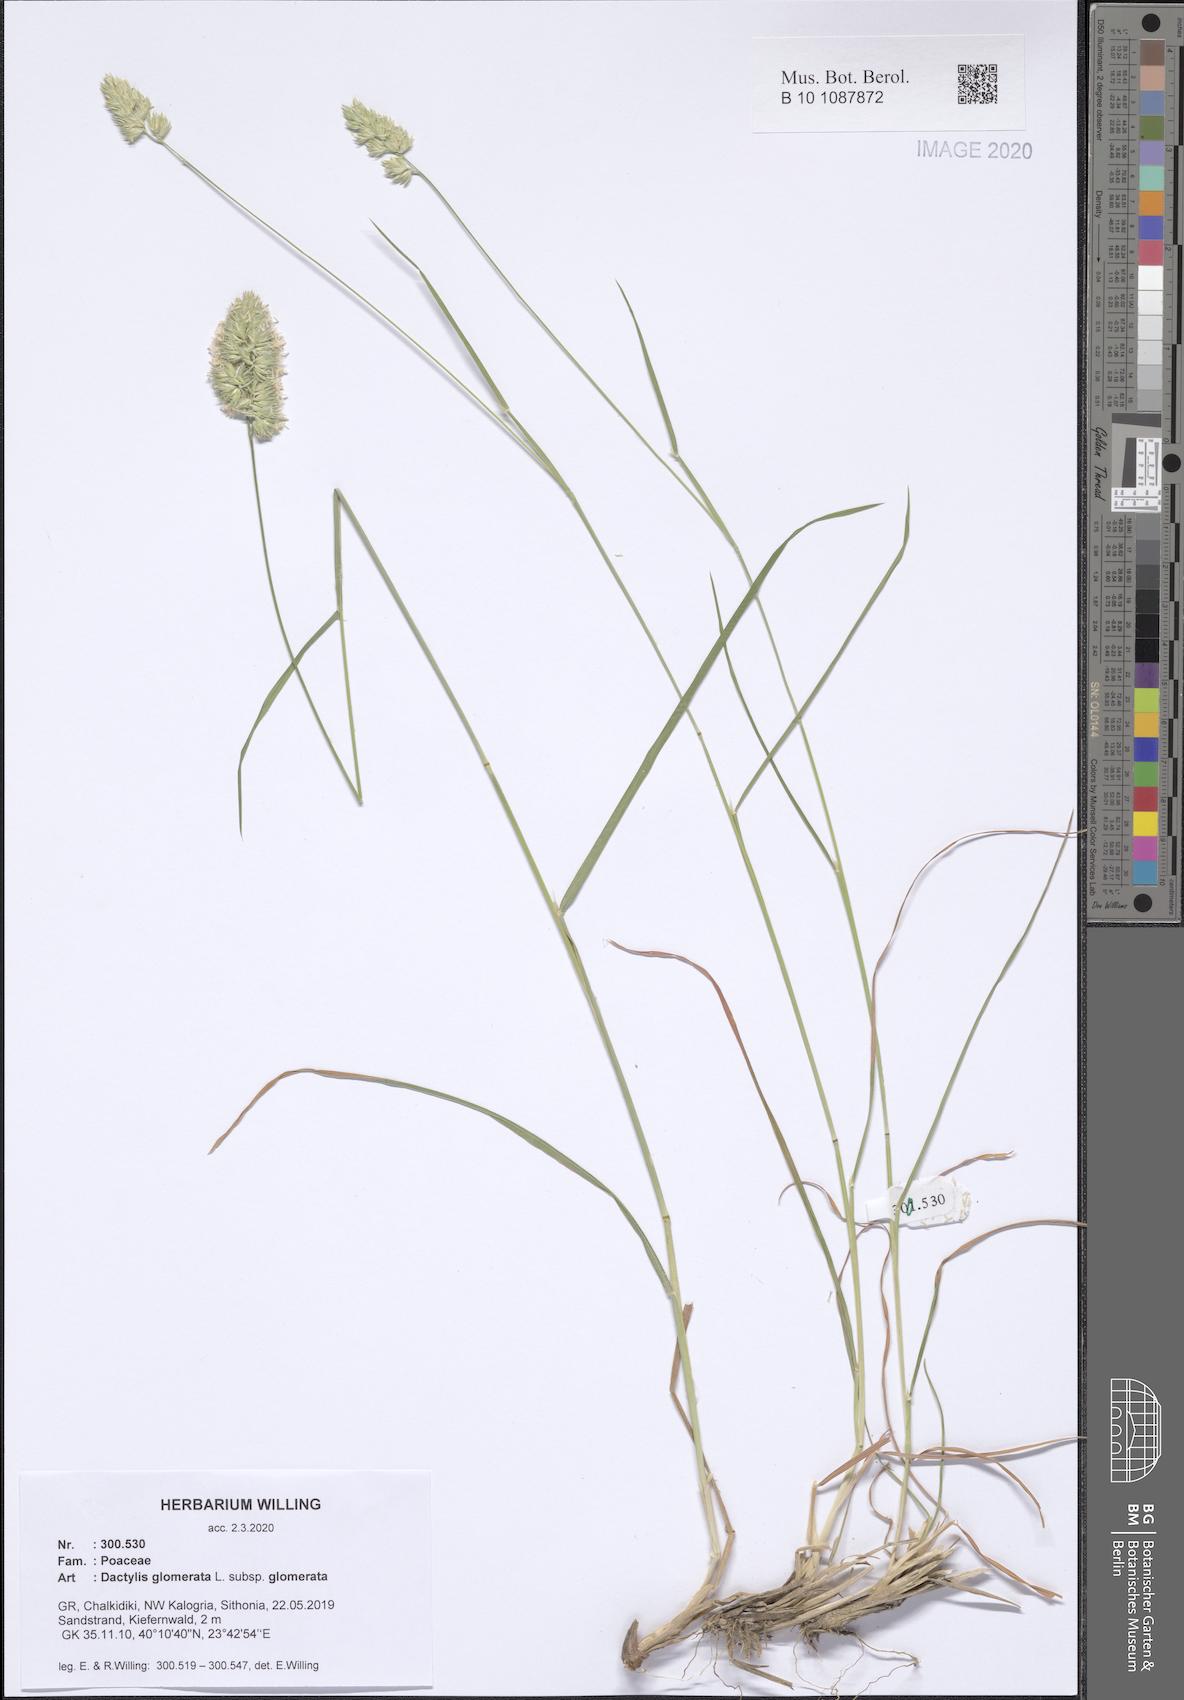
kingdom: Plantae
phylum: Tracheophyta
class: Liliopsida
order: Poales
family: Poaceae
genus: Dactylis
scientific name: Dactylis glomerata
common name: Orchardgrass
